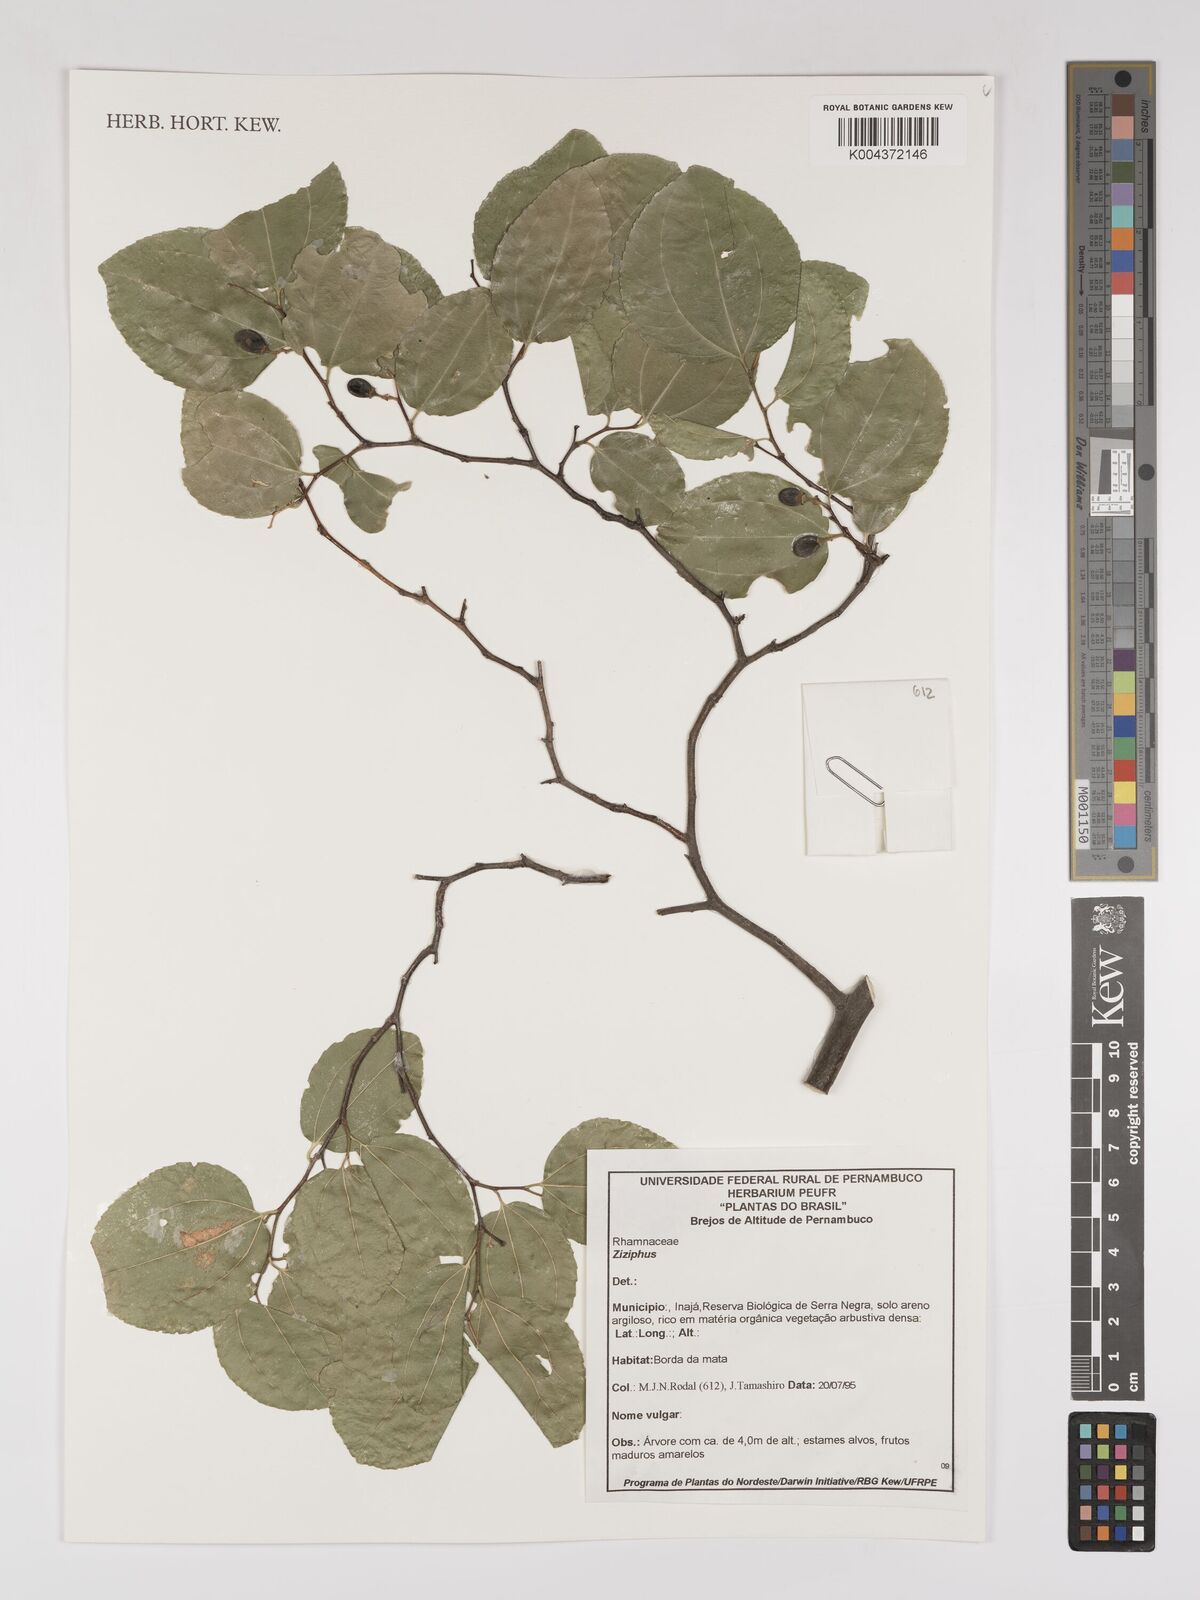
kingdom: Plantae
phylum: Tracheophyta
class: Magnoliopsida
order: Rosales
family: Rhamnaceae
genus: Ziziphus
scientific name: Ziziphus
